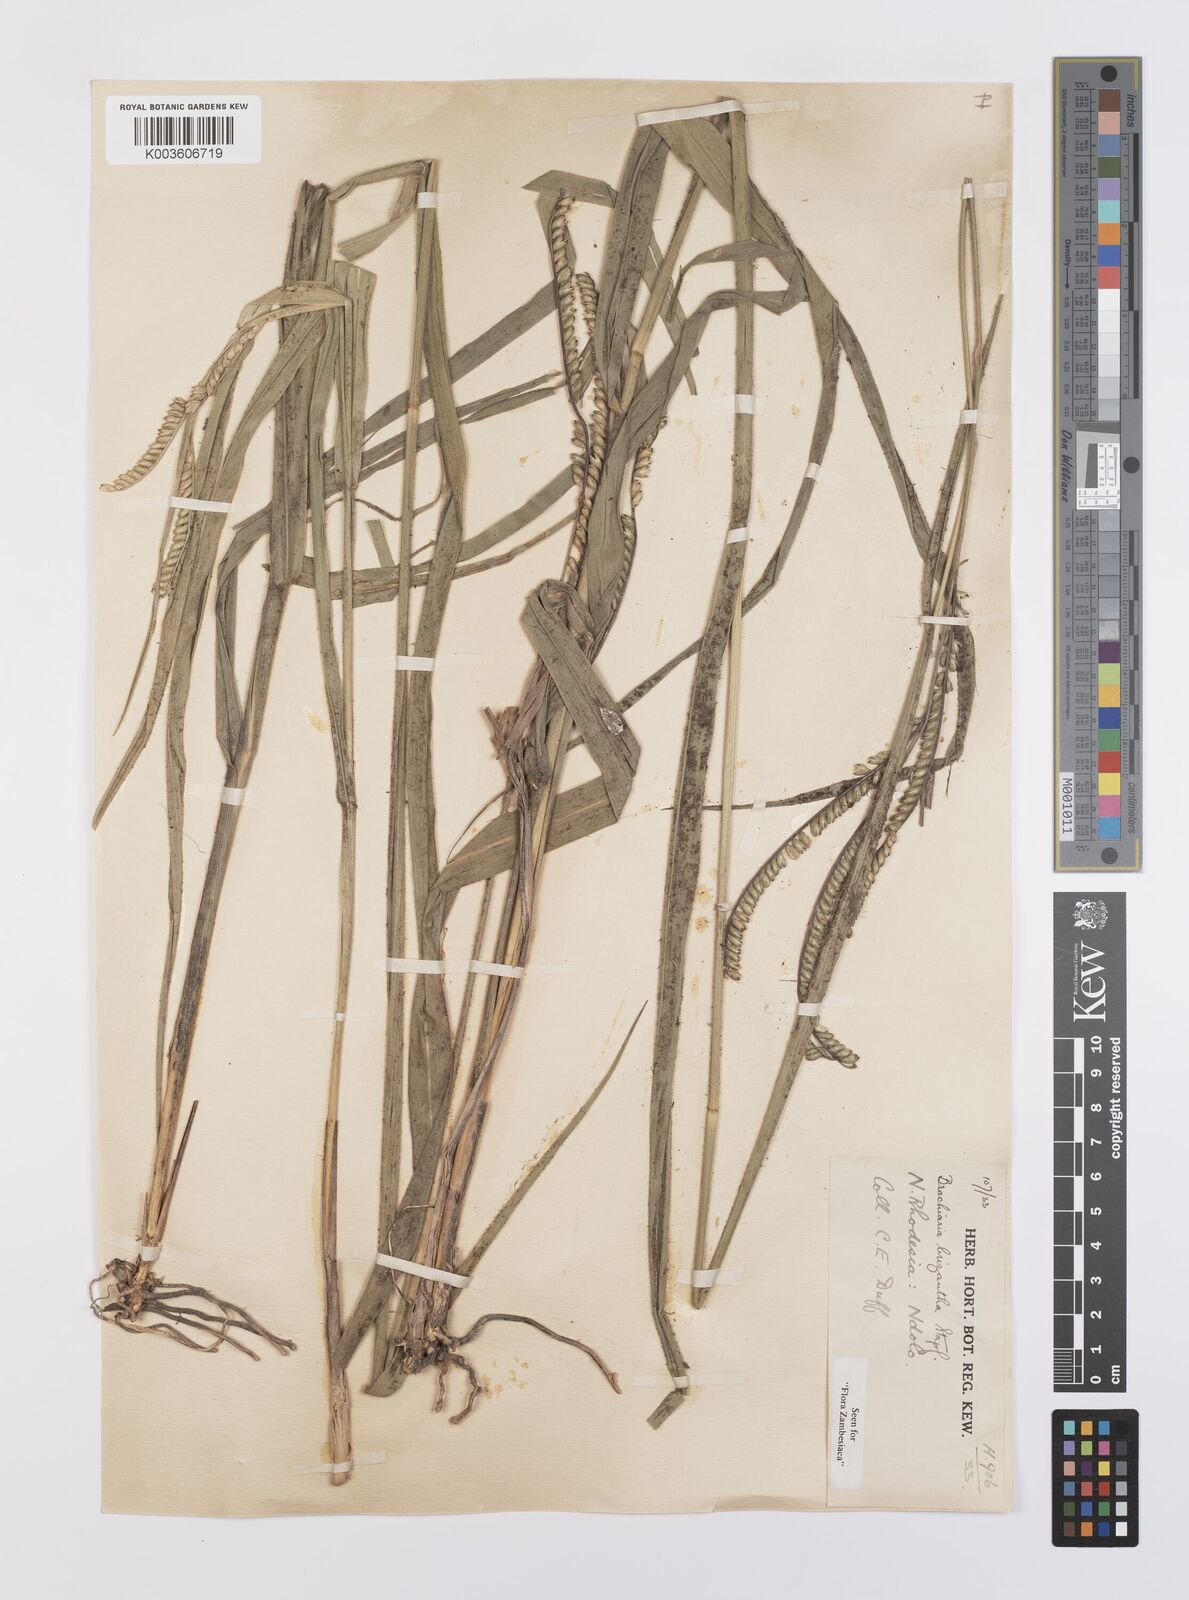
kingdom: Plantae
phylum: Tracheophyta
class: Liliopsida
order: Poales
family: Poaceae
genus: Urochloa
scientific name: Urochloa brizantha
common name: Palisade signalgrass
